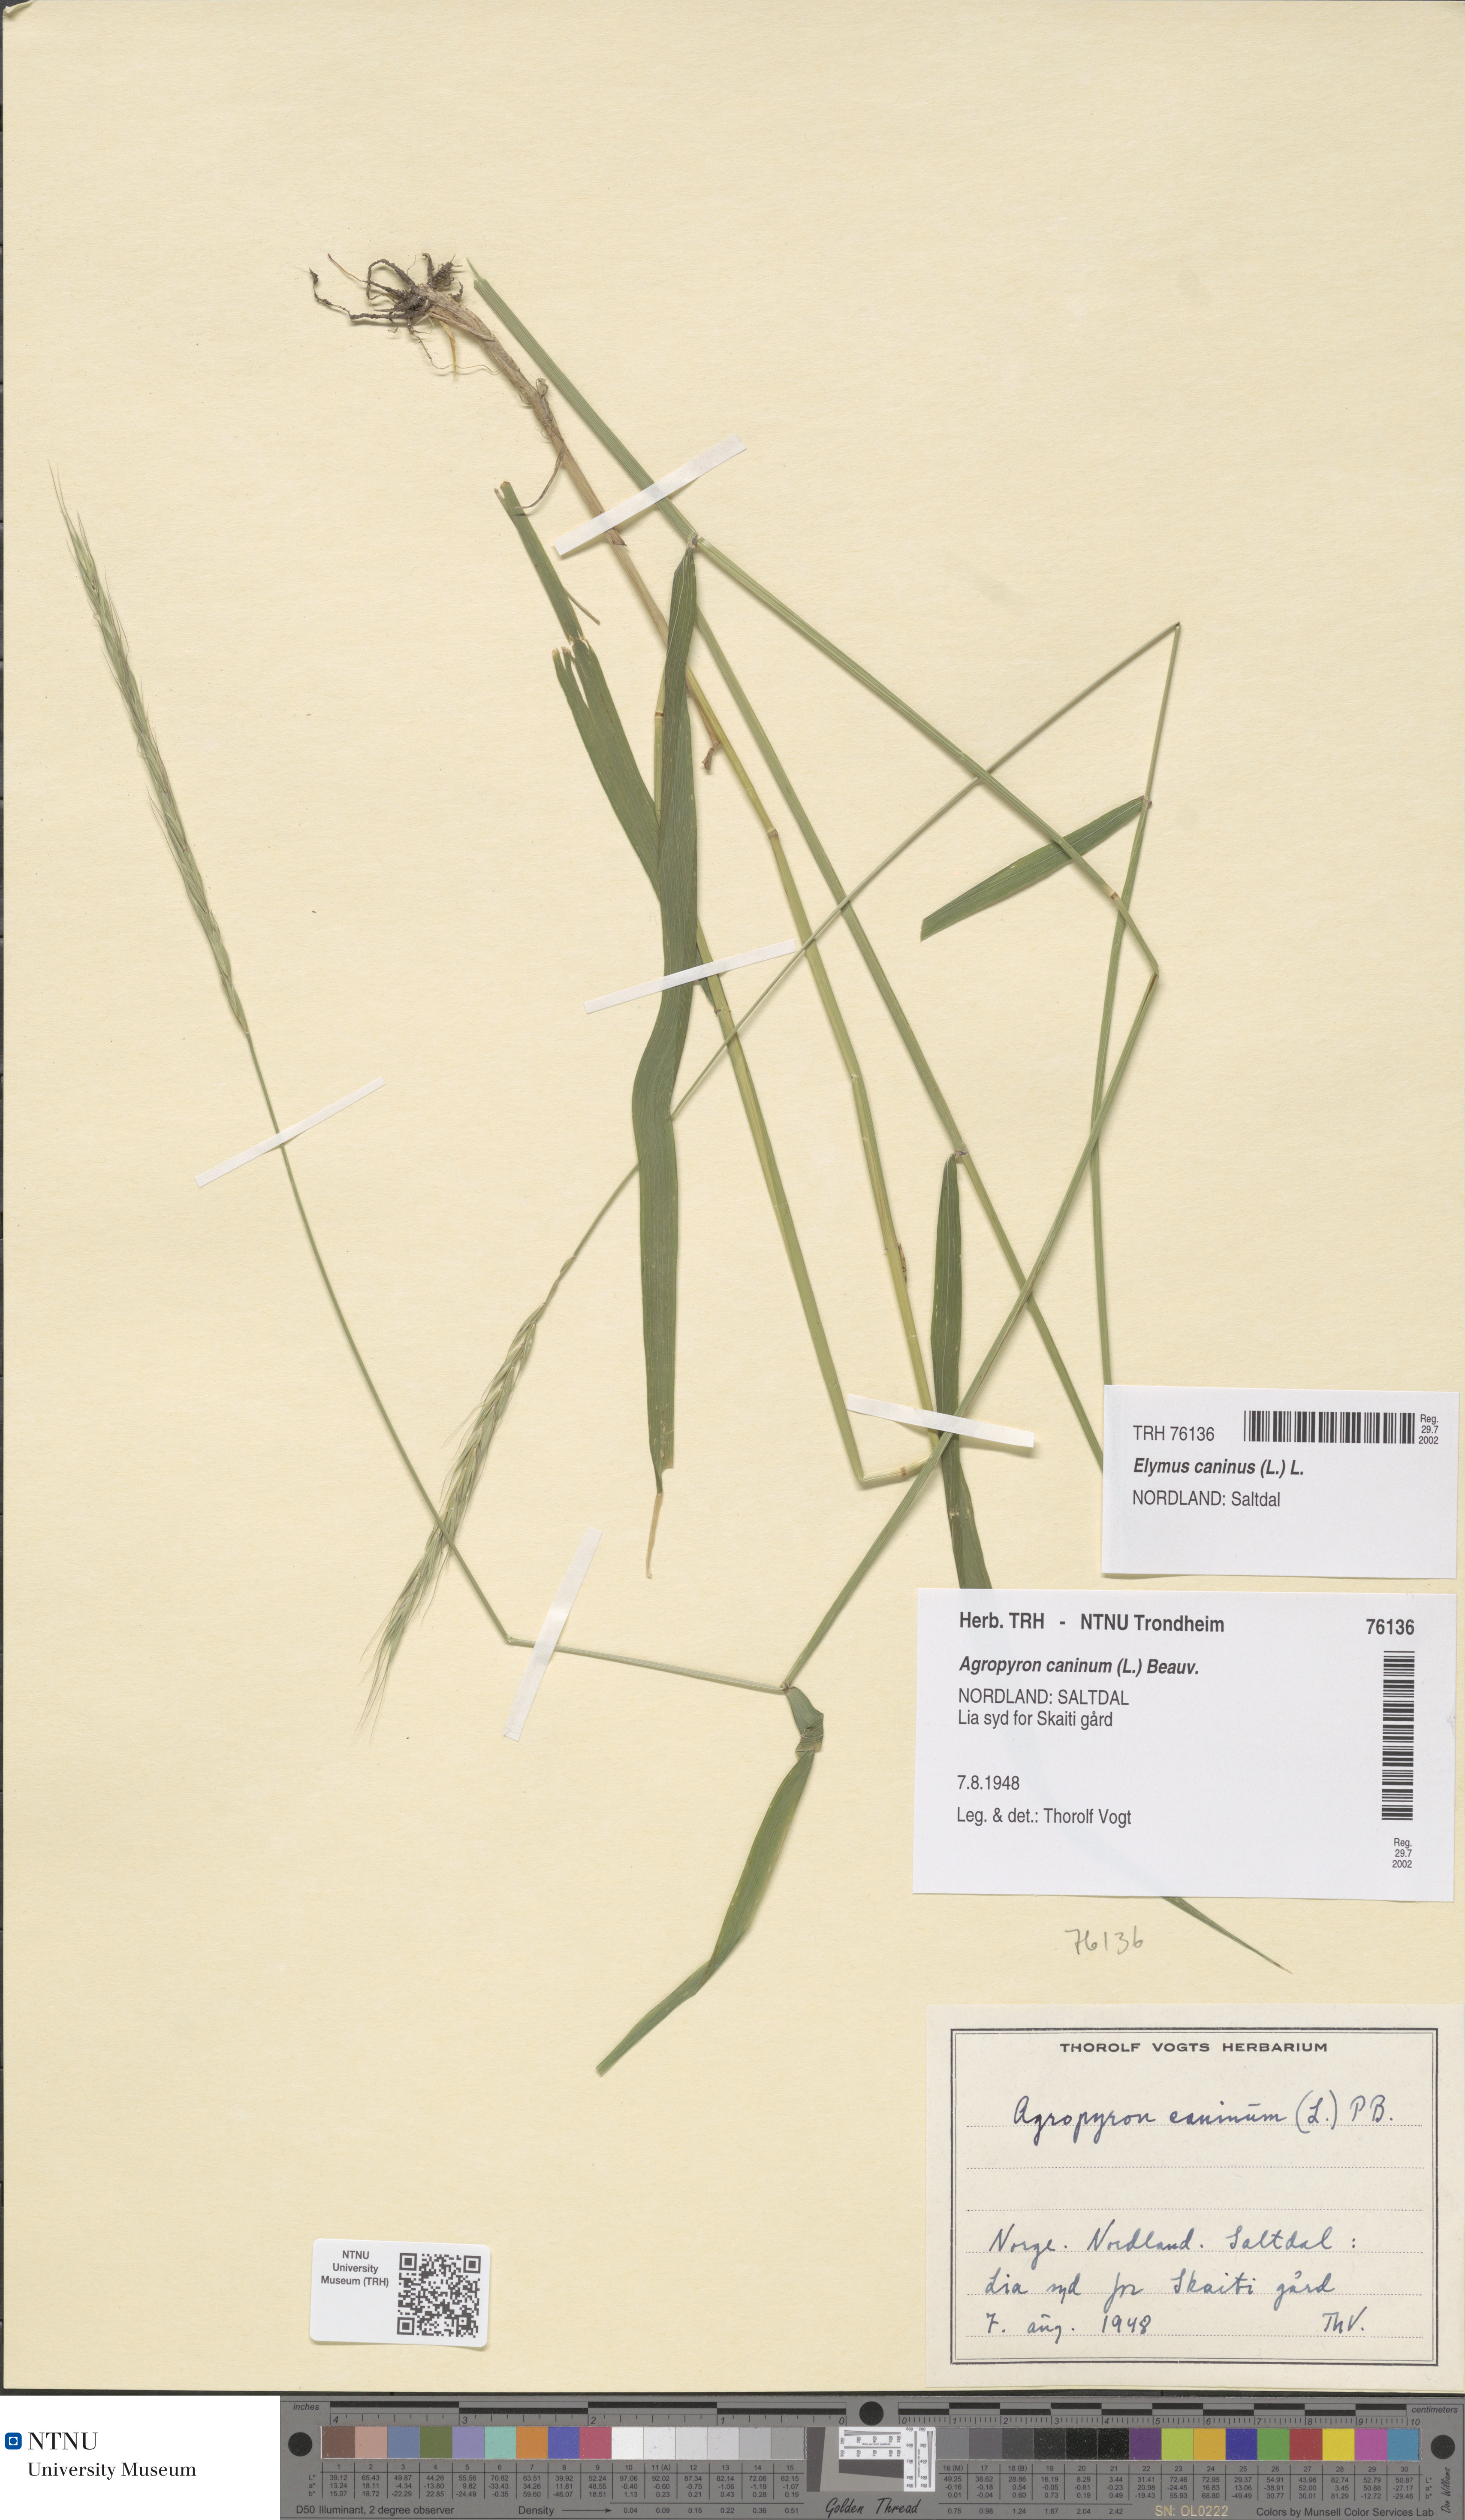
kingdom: Plantae
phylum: Tracheophyta
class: Liliopsida
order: Poales
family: Poaceae
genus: Elymus
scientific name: Elymus caninus
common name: Bearded couch
